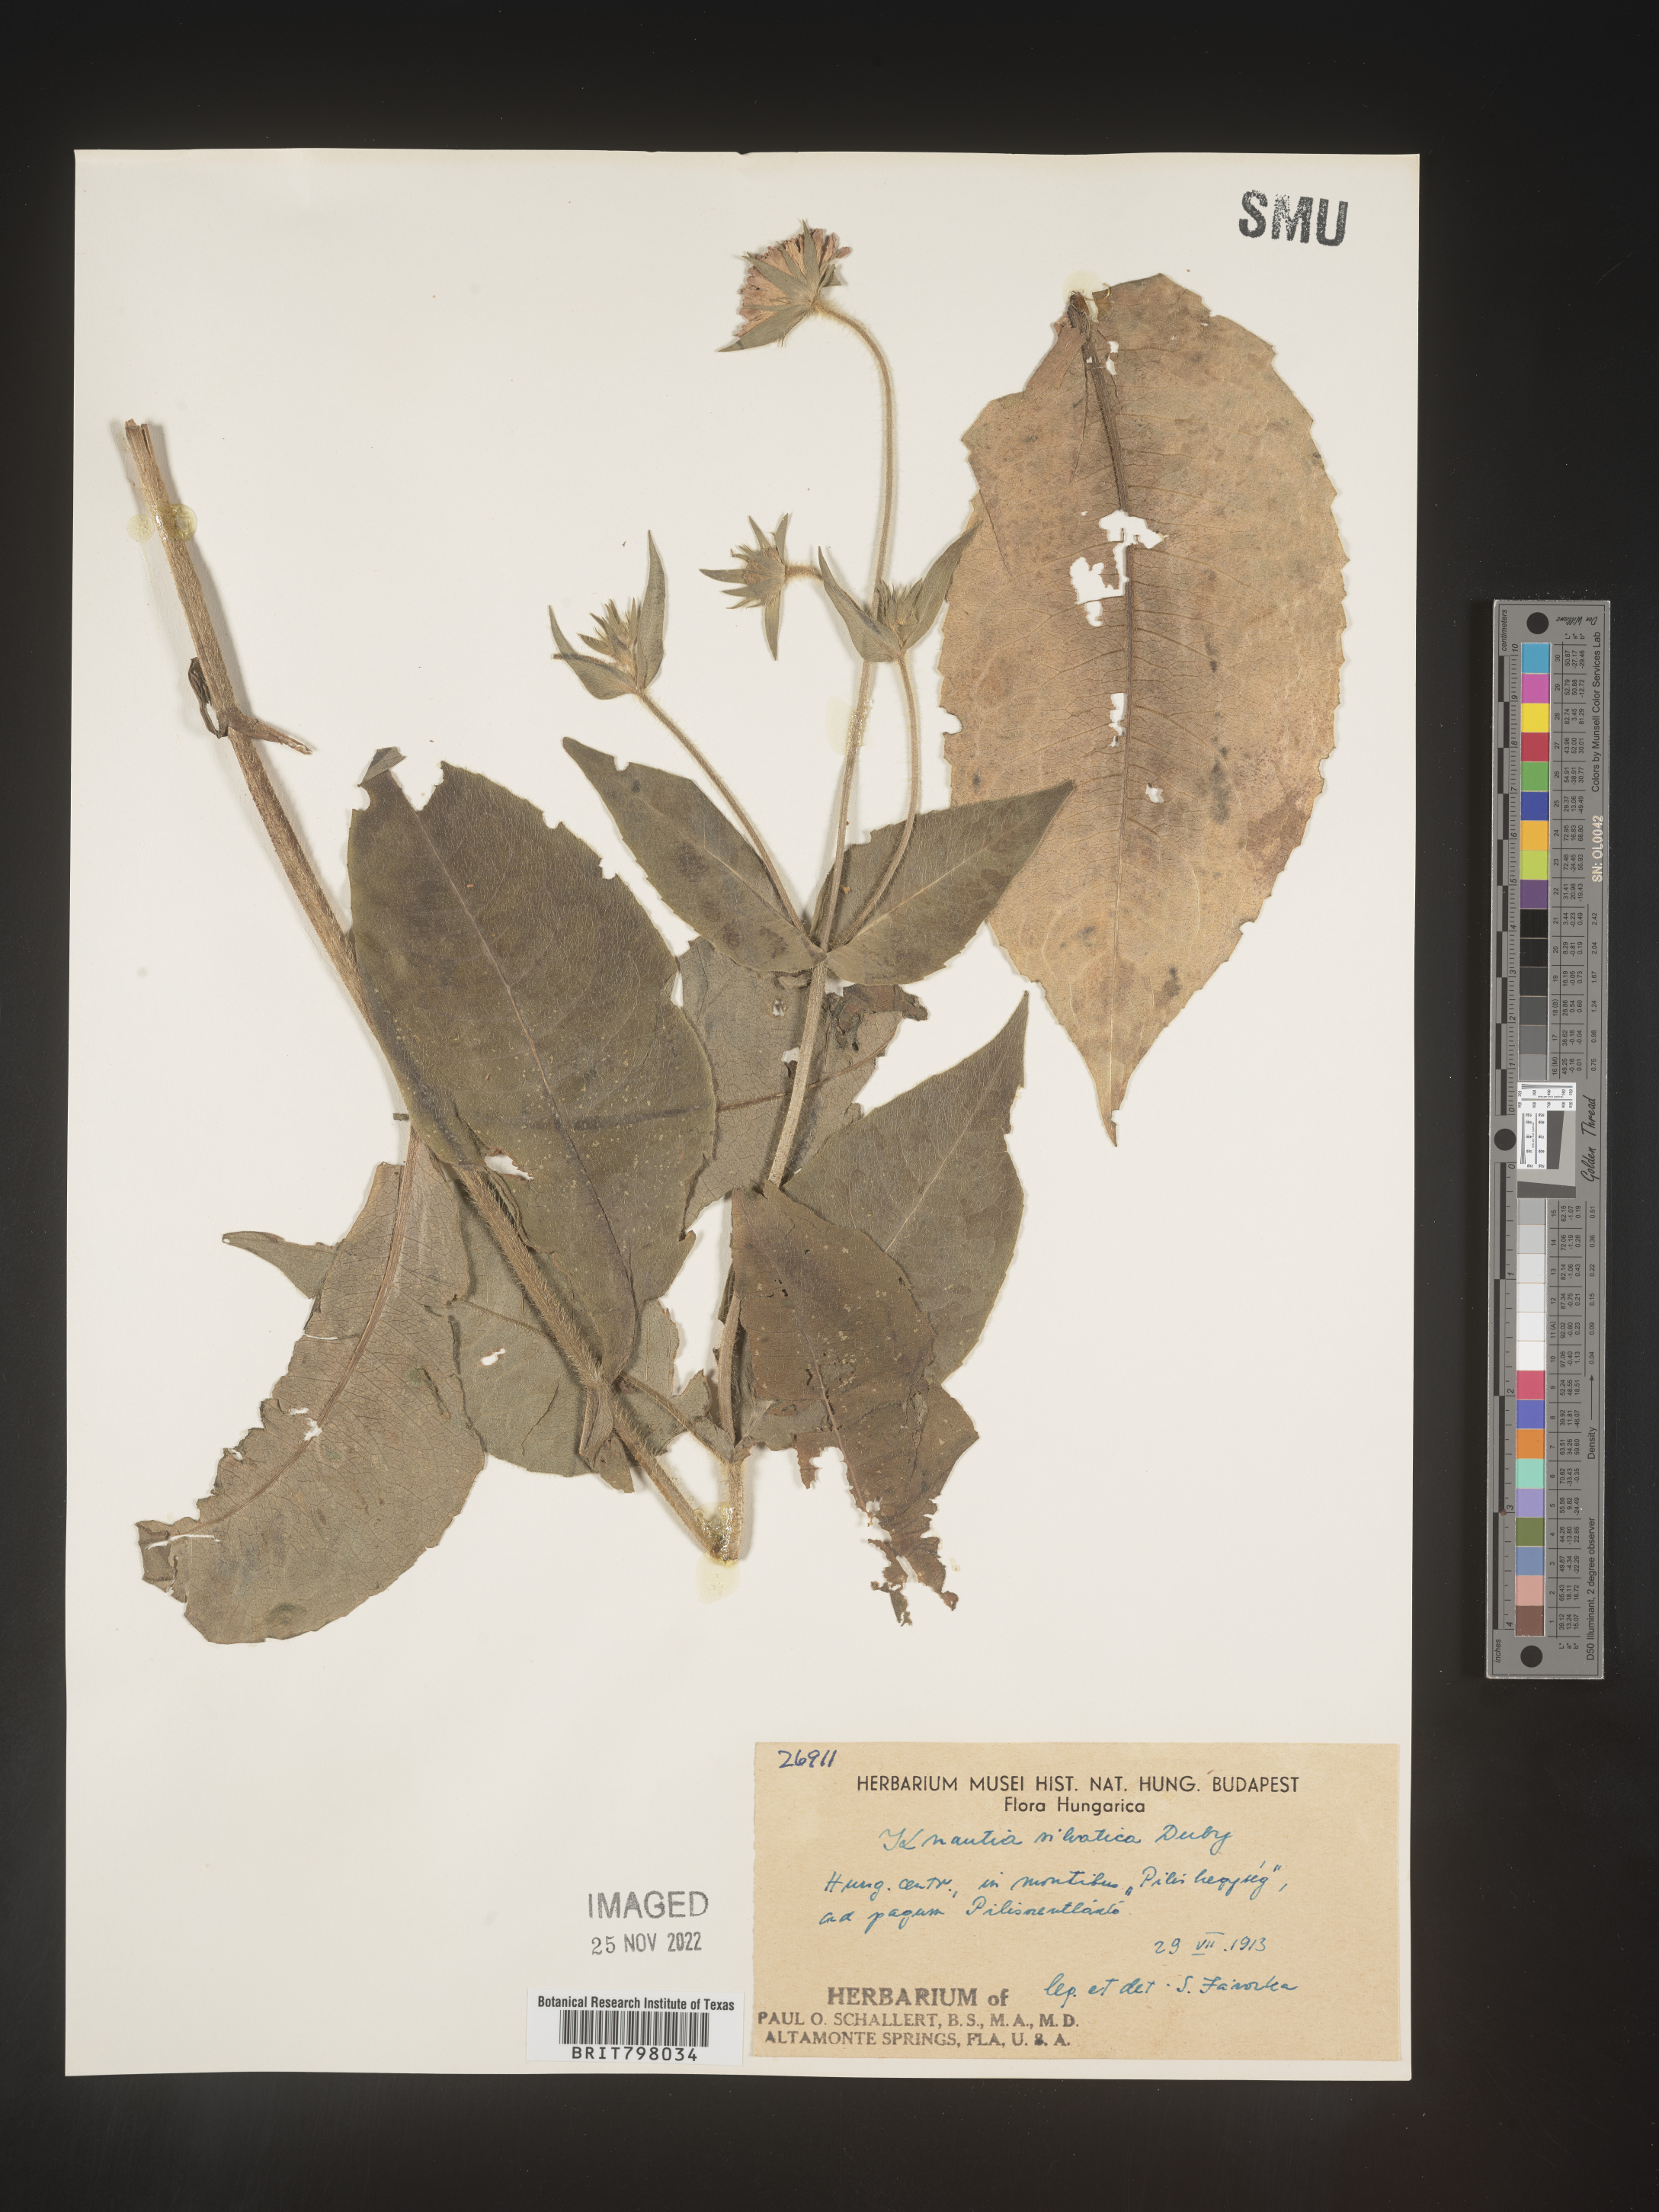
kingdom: Plantae
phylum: Tracheophyta
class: Magnoliopsida
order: Dipsacales
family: Caprifoliaceae
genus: Knautia
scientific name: Knautia
